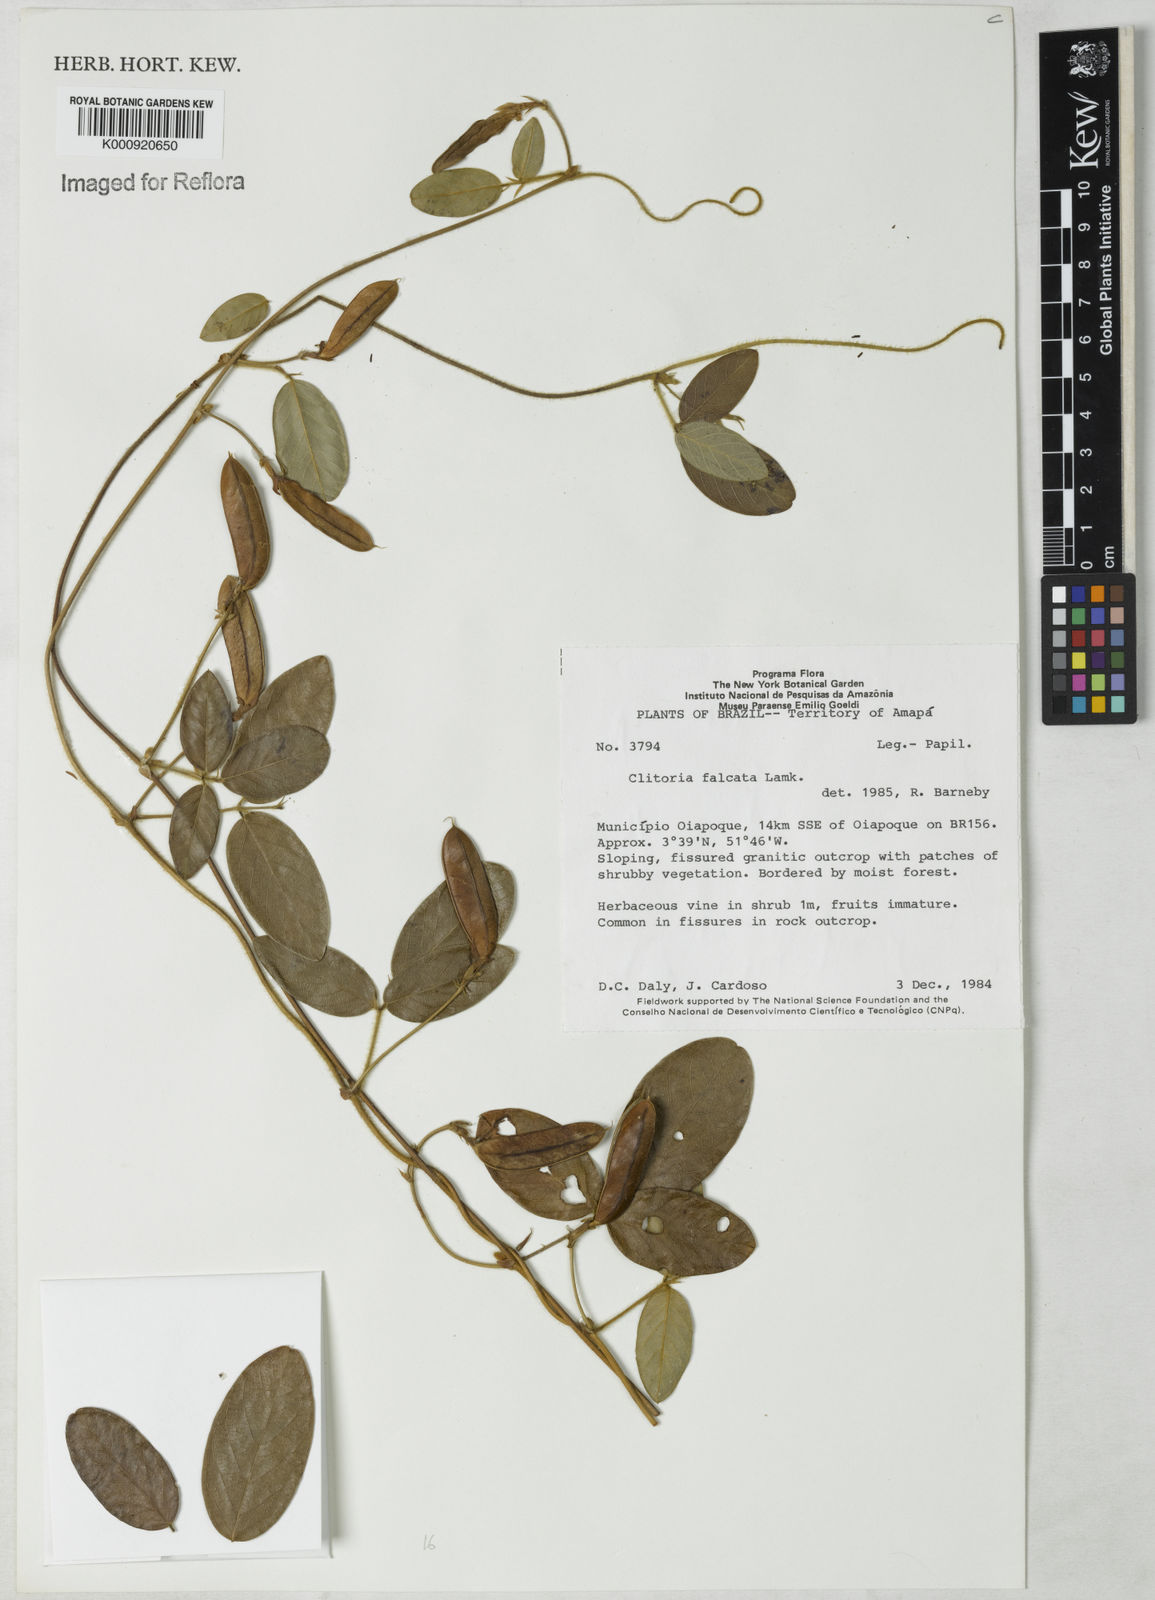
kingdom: Plantae
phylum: Tracheophyta
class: Magnoliopsida
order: Fabales
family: Fabaceae
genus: Clitoria
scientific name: Clitoria
